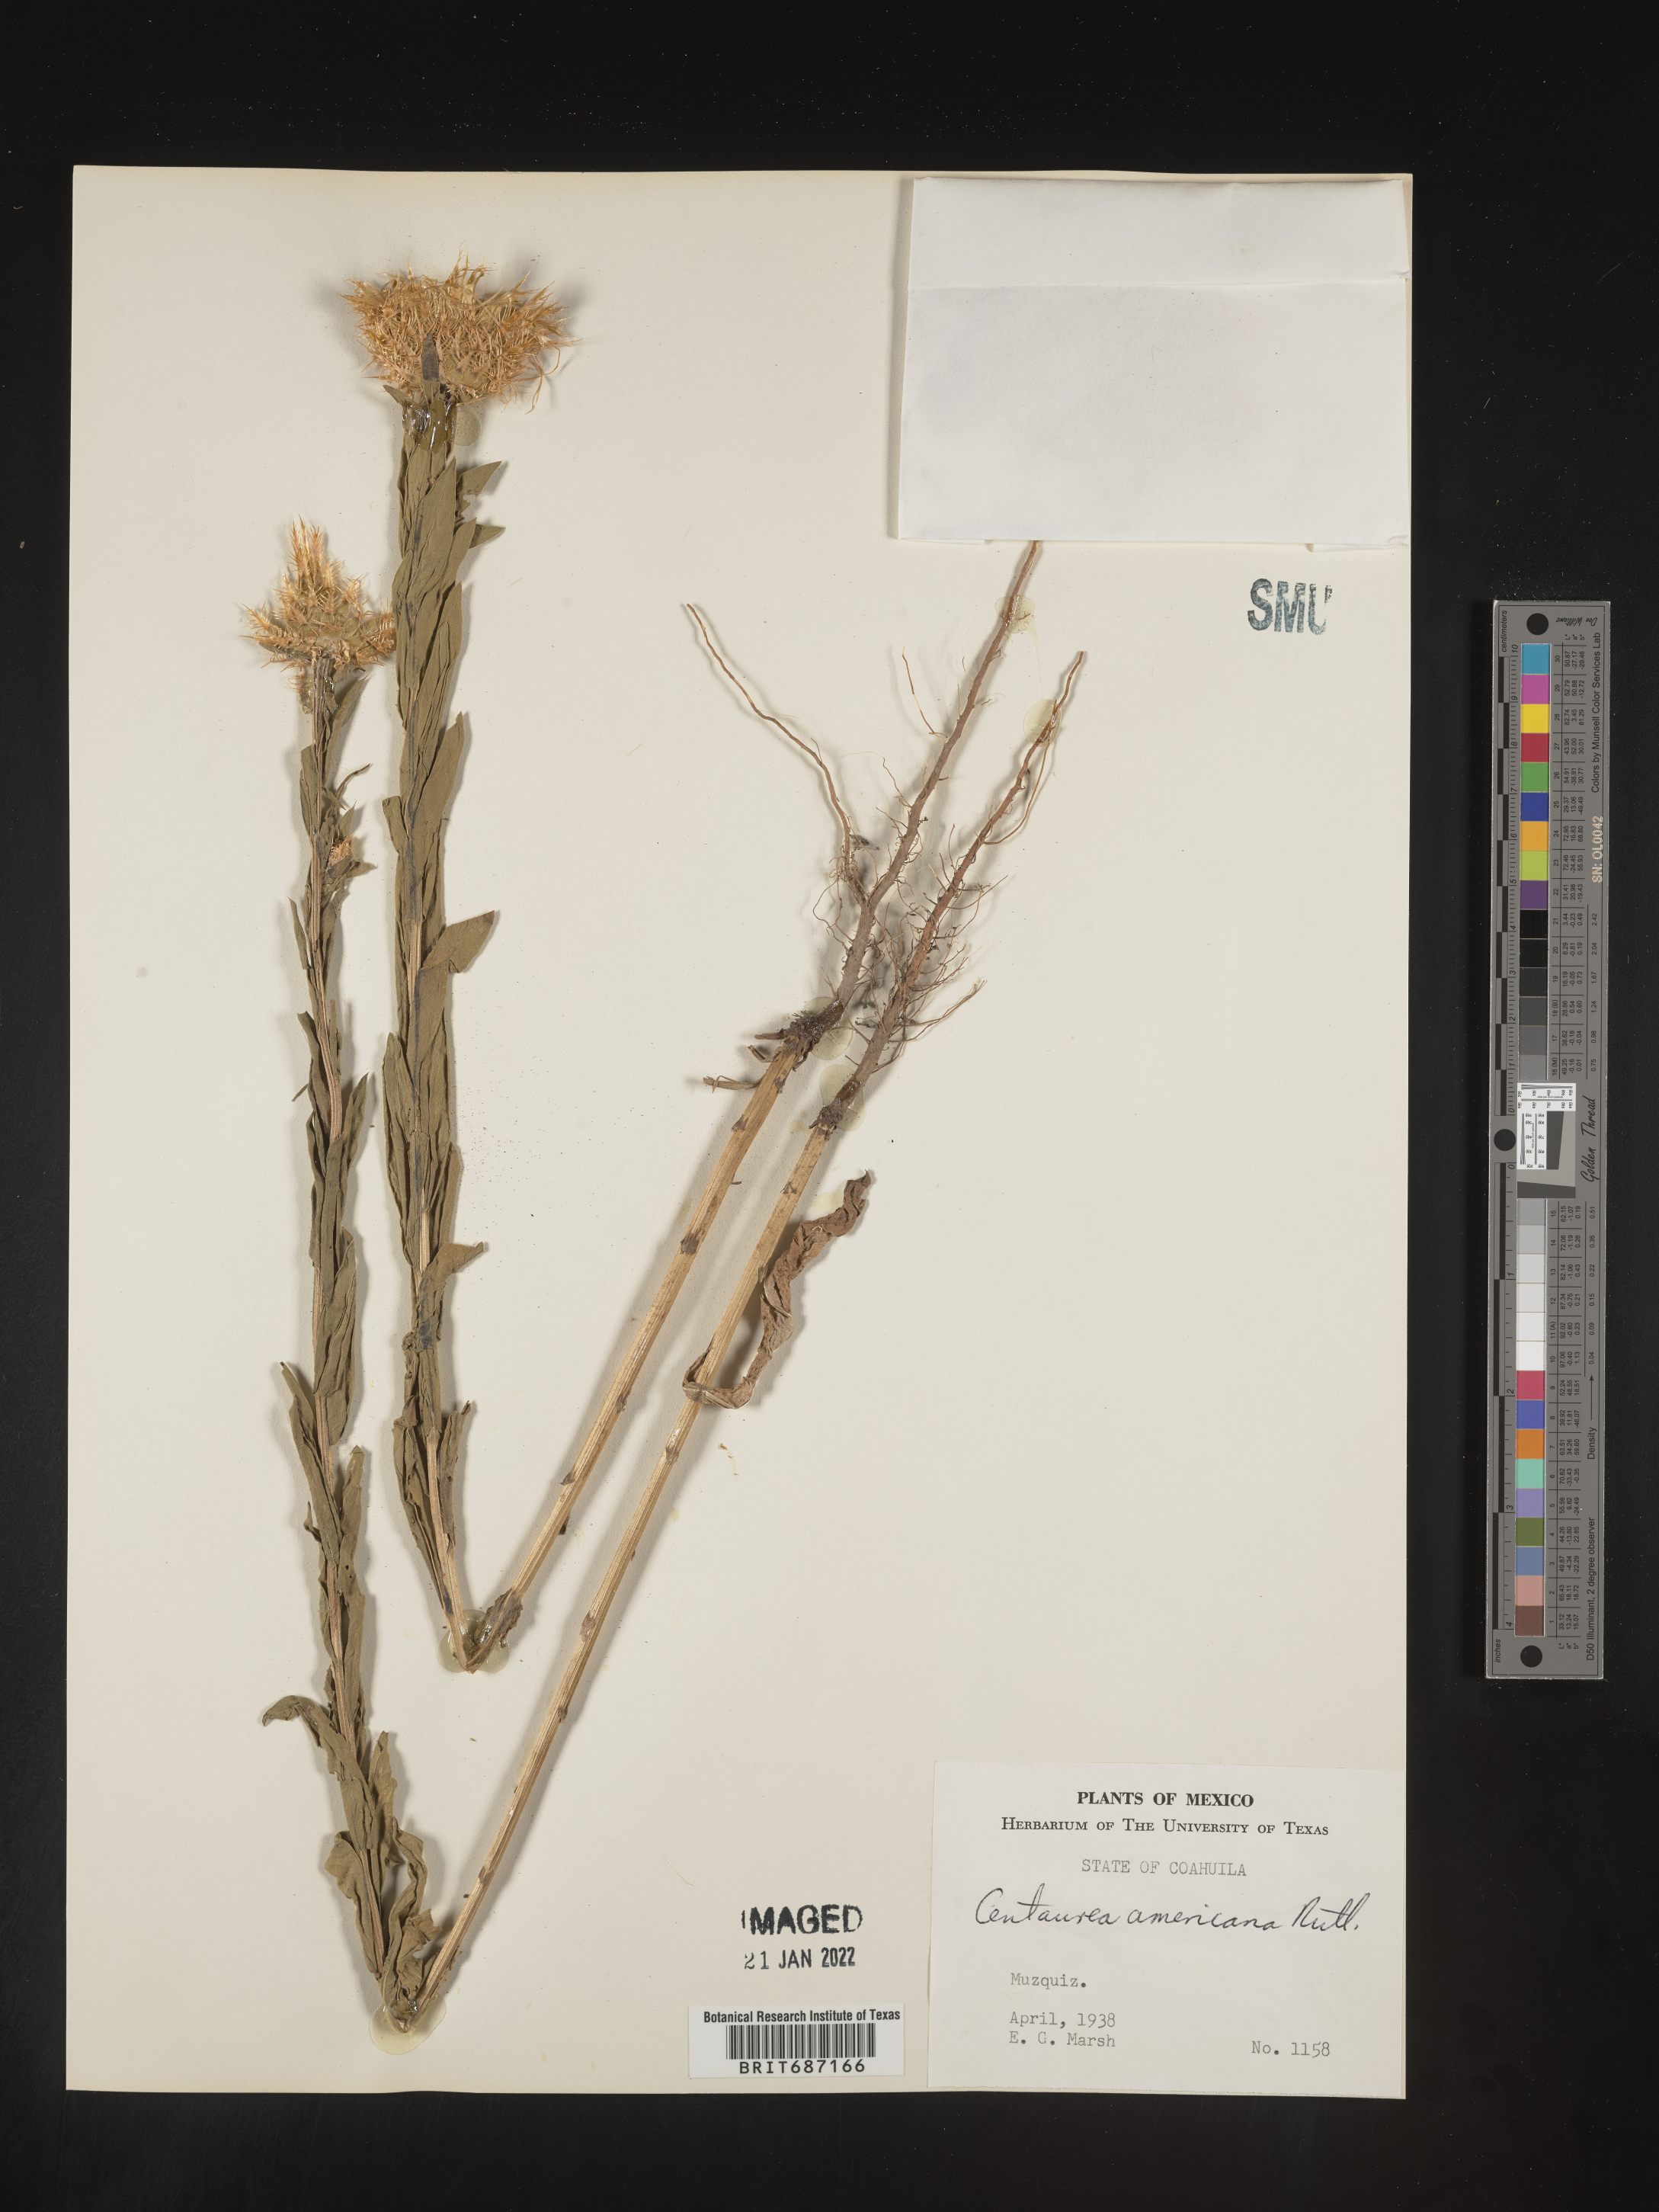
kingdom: Plantae
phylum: Tracheophyta
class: Magnoliopsida
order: Asterales
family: Asteraceae
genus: Centaurea
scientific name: Centaurea
